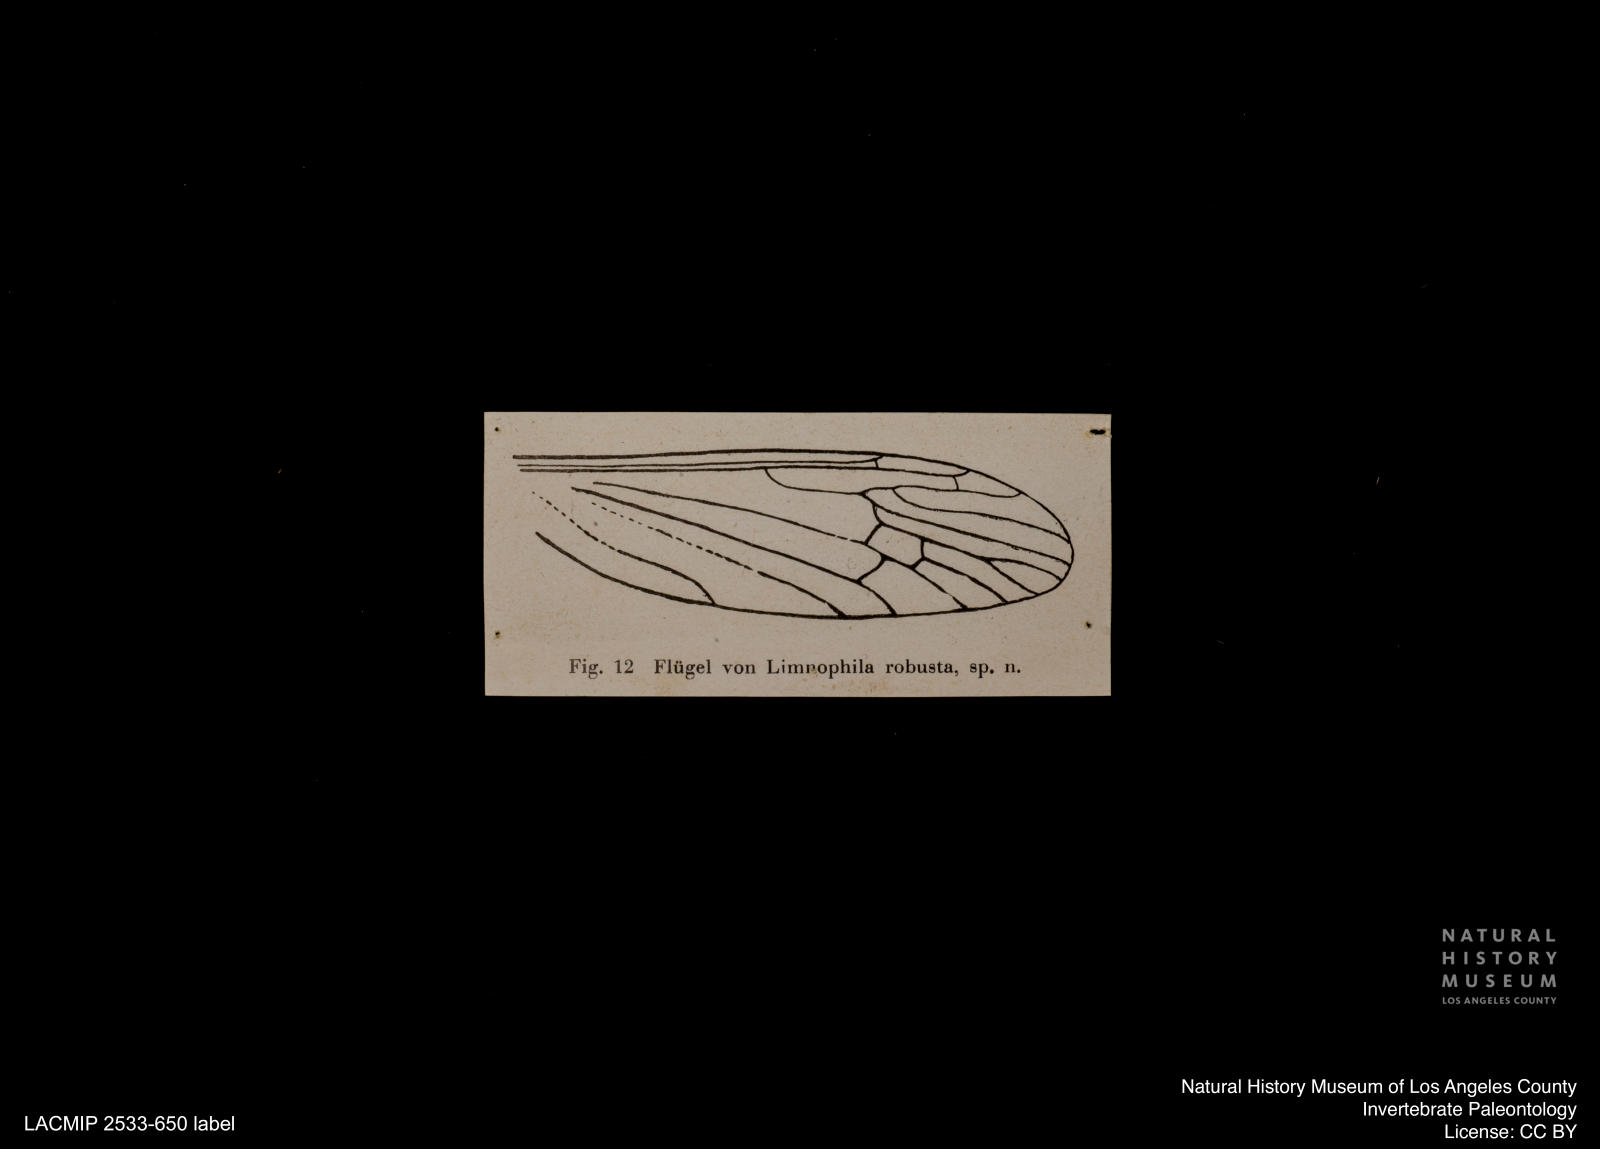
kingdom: Animalia
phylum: Arthropoda
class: Insecta
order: Diptera
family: Limoniidae
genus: Limnophila
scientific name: Limnophila statzi
